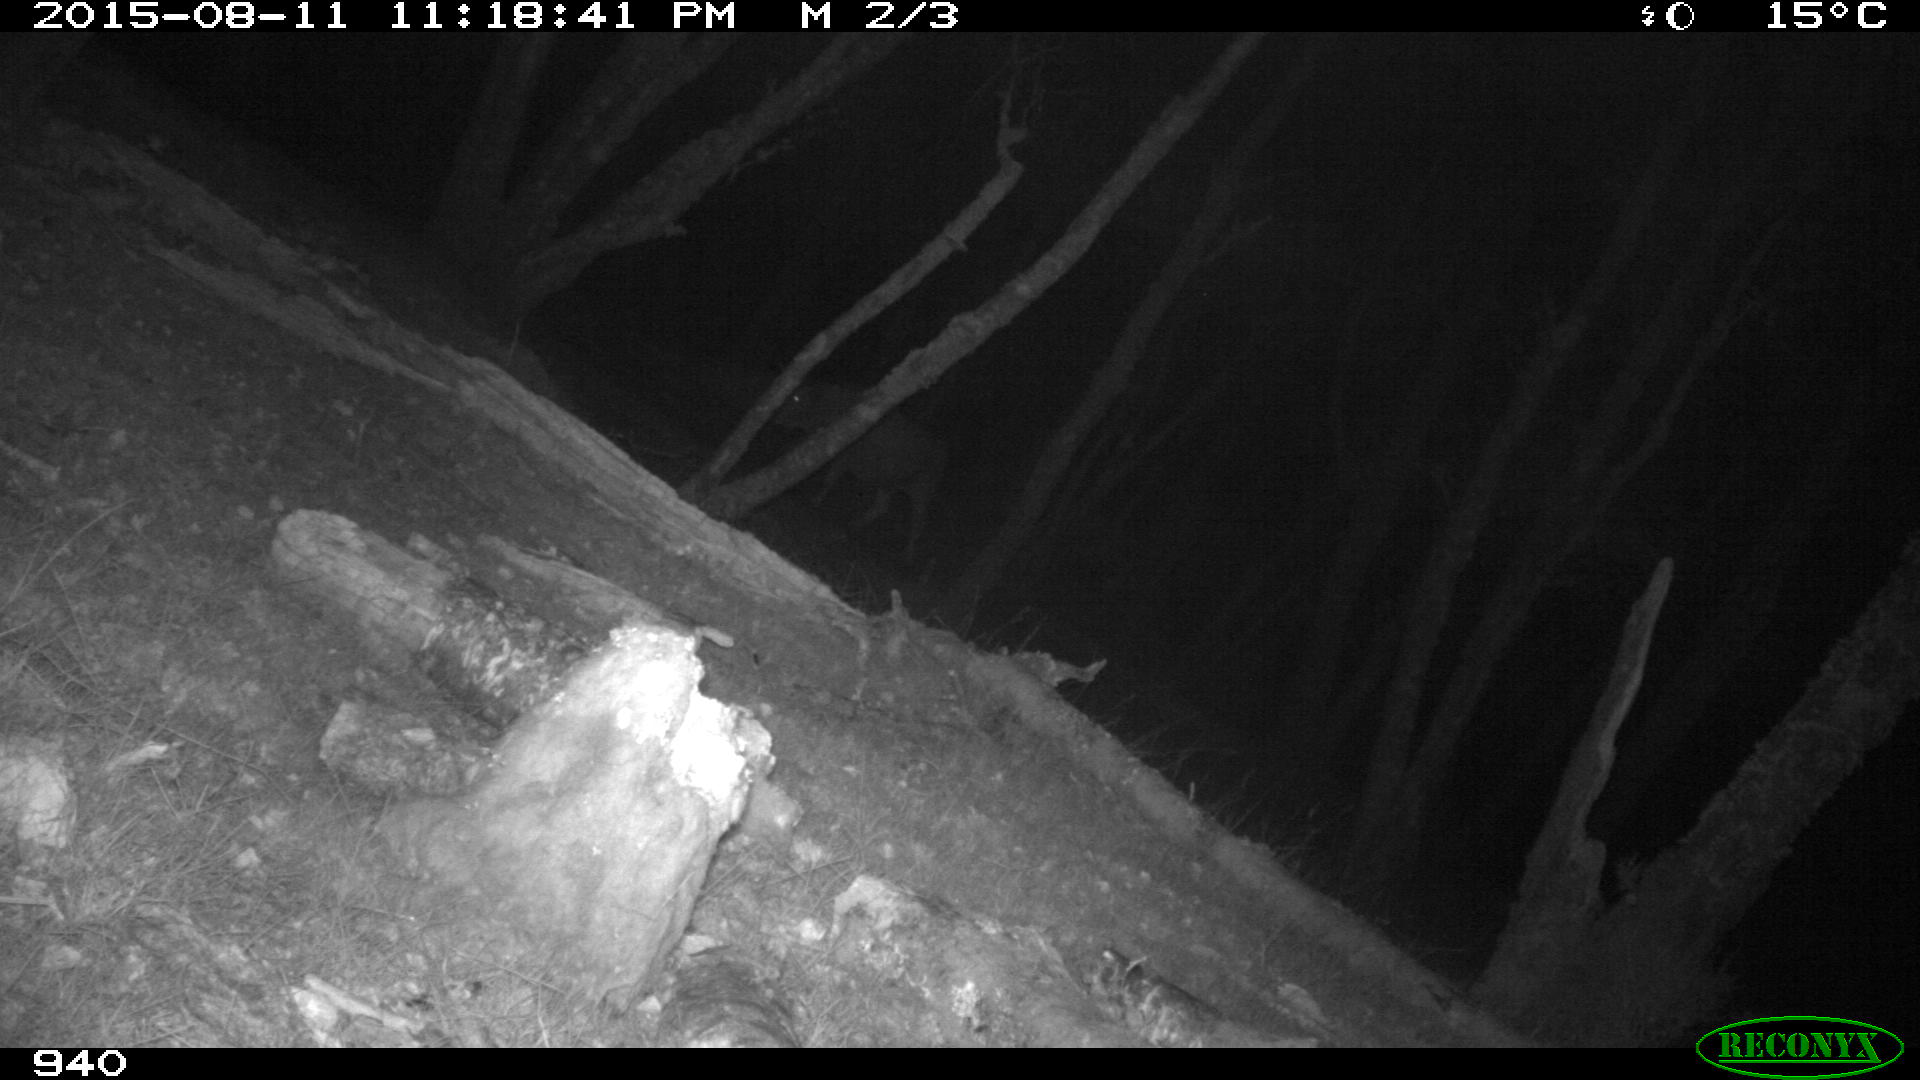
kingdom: Animalia
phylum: Chordata
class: Mammalia
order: Artiodactyla
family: Bovidae
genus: Bos
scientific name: Bos taurus
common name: Domesticated cattle
